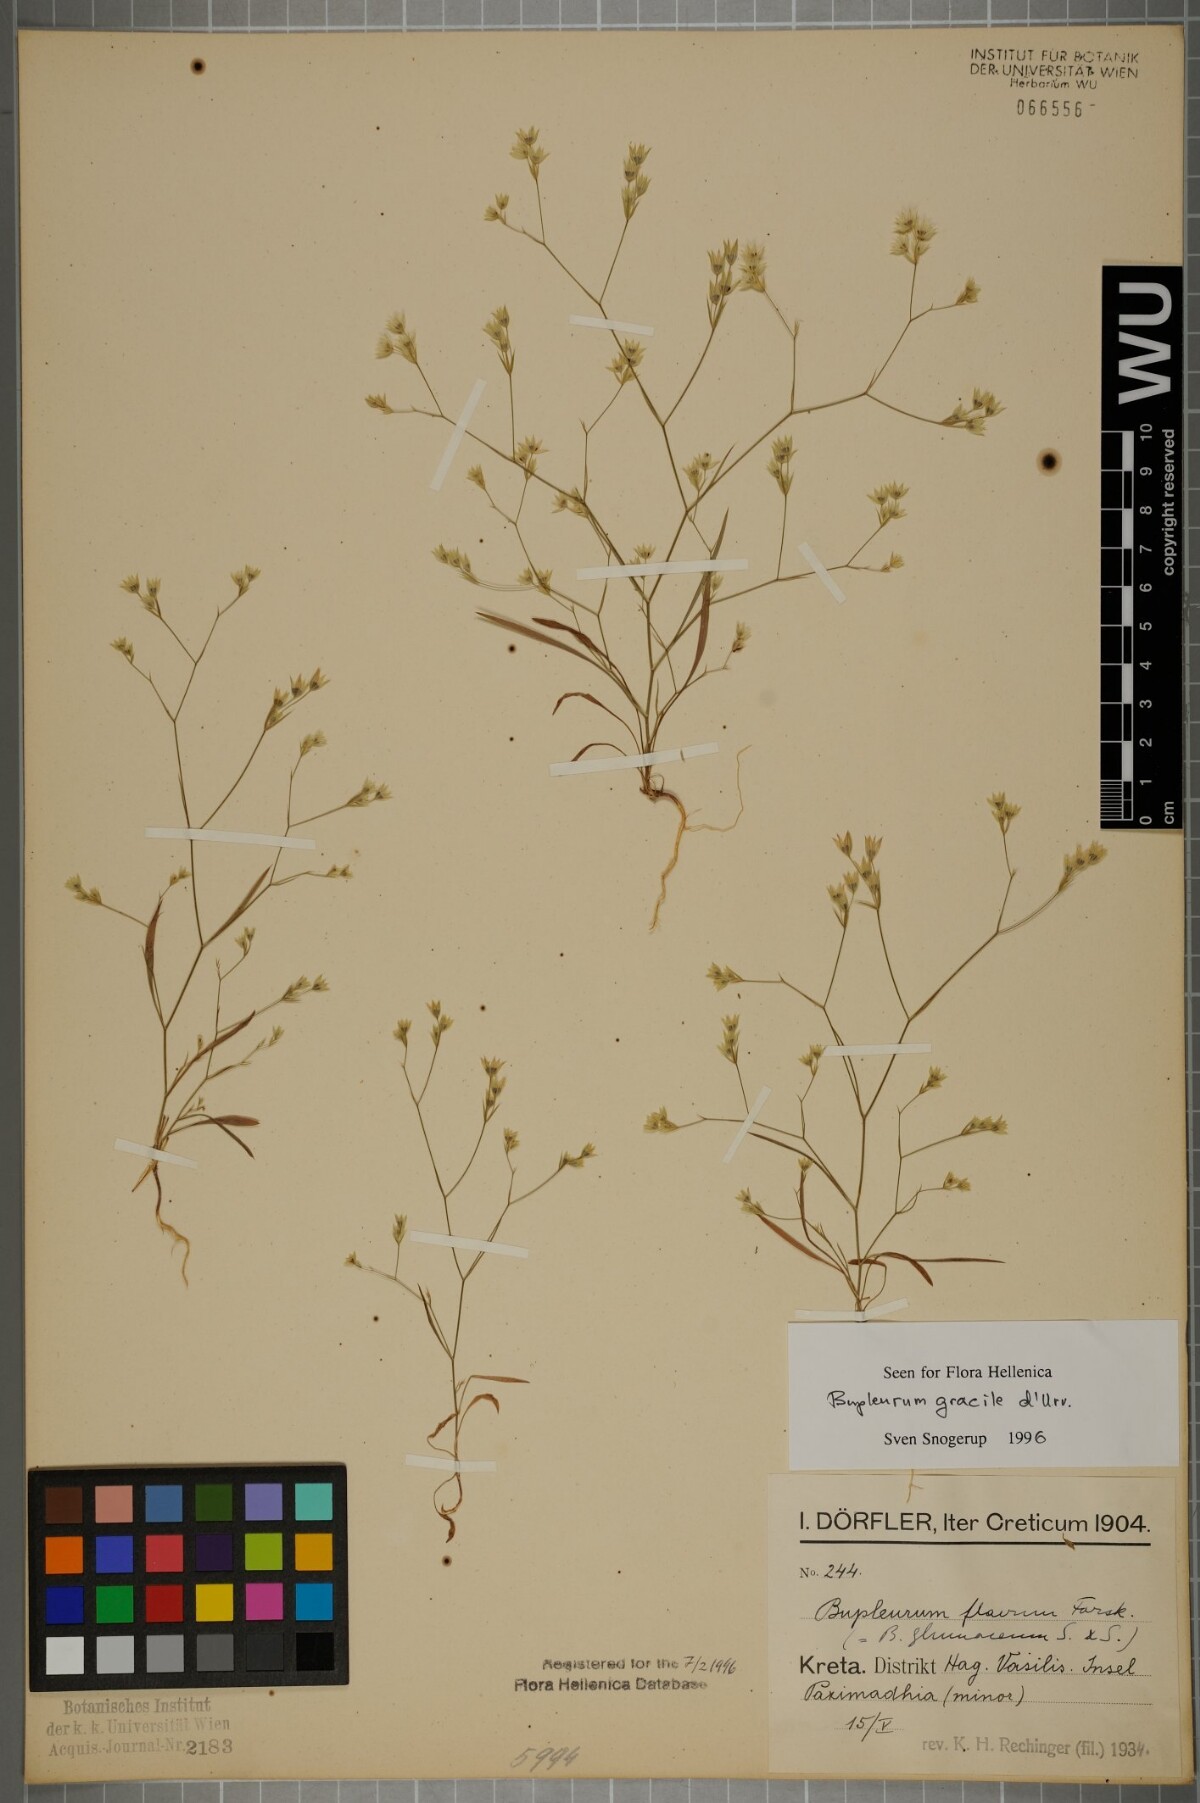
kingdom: Plantae
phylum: Tracheophyta
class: Magnoliopsida
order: Apiales
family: Apiaceae
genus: Bupleurum
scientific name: Bupleurum gracile
